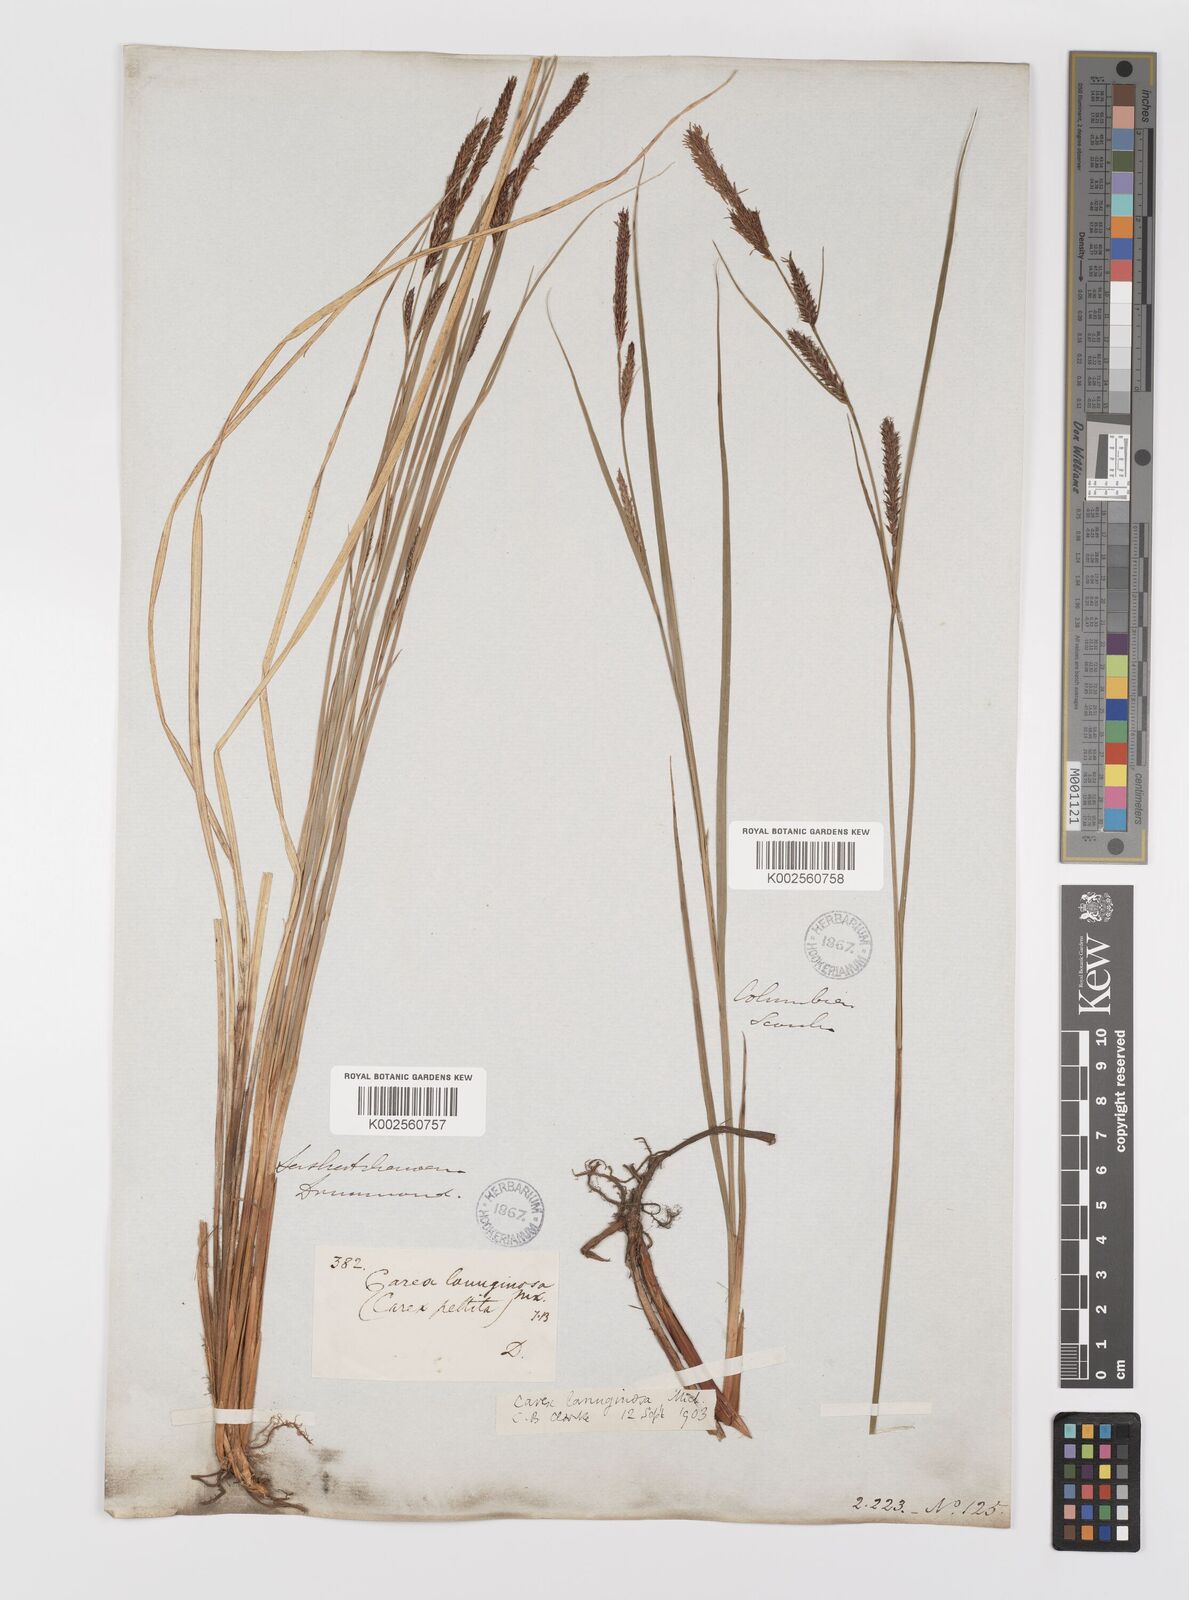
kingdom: Plantae
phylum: Tracheophyta
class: Liliopsida
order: Poales
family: Cyperaceae
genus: Carex
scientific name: Carex lasiocarpa
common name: Slender sedge
